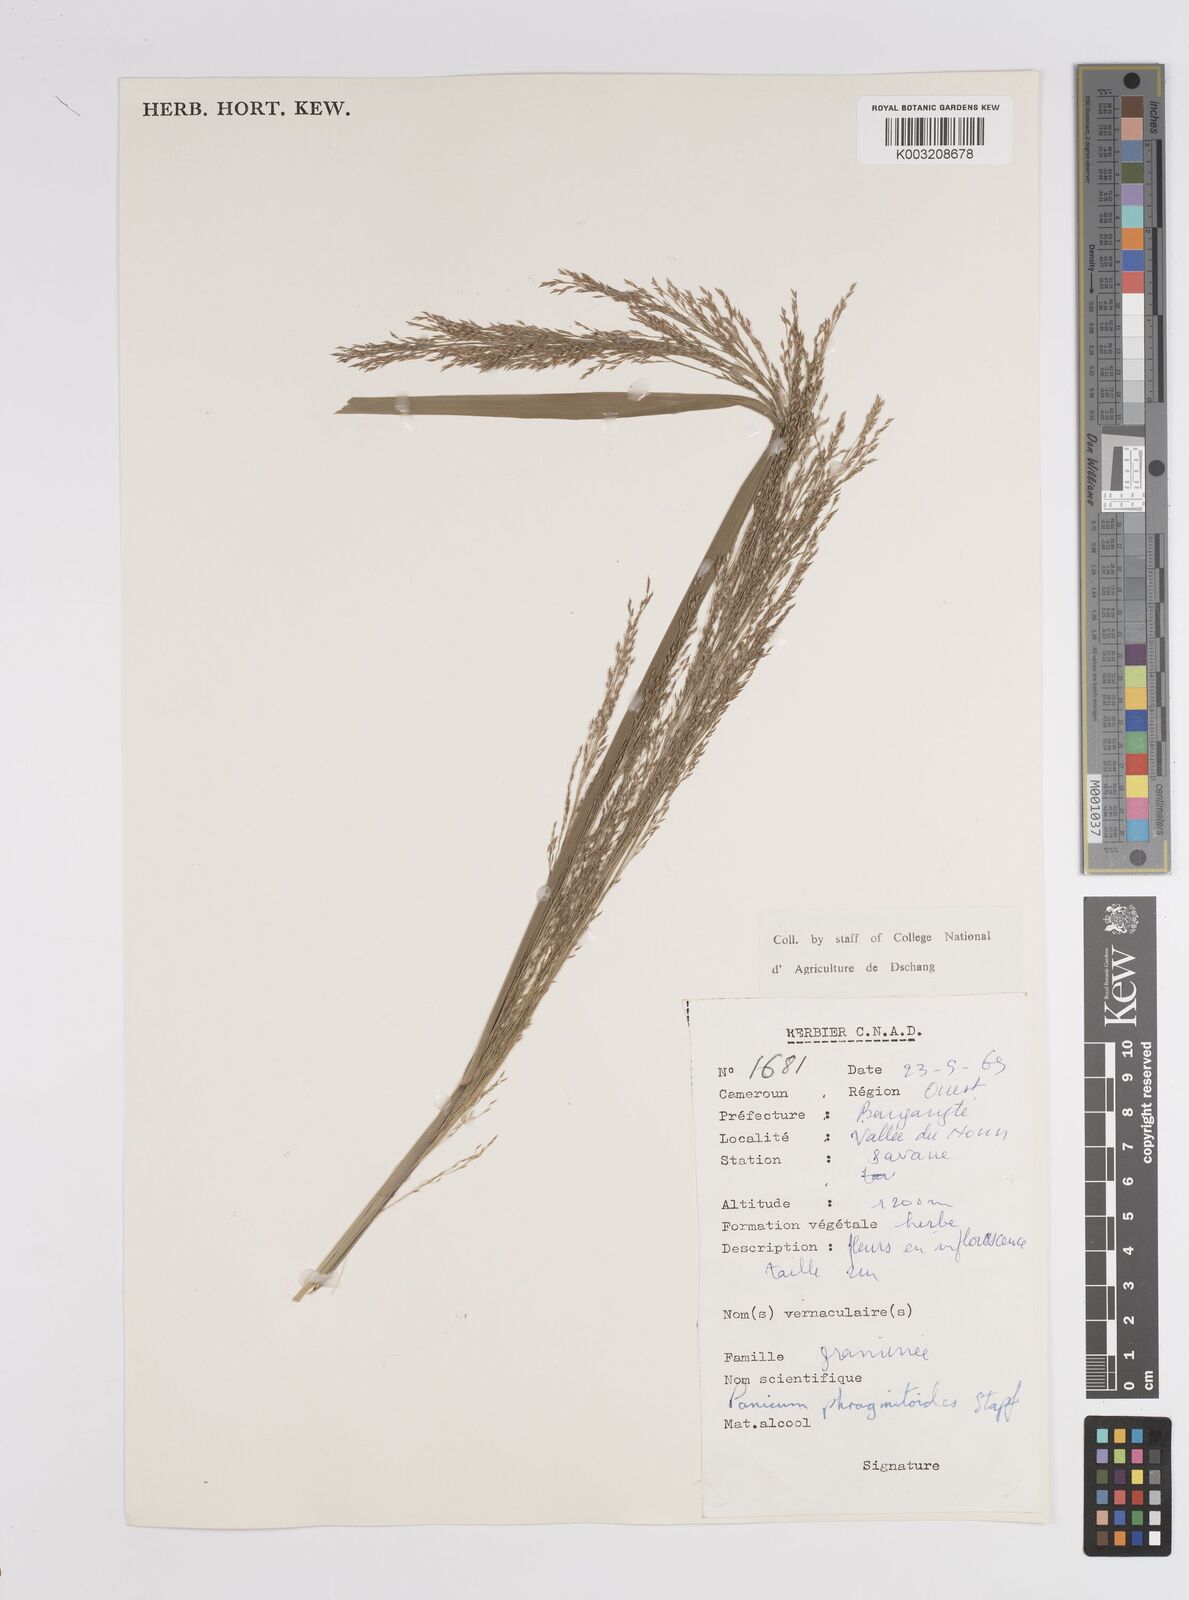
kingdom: Plantae
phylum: Tracheophyta
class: Liliopsida
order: Poales
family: Poaceae
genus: Panicum
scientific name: Panicum phragmitoides
